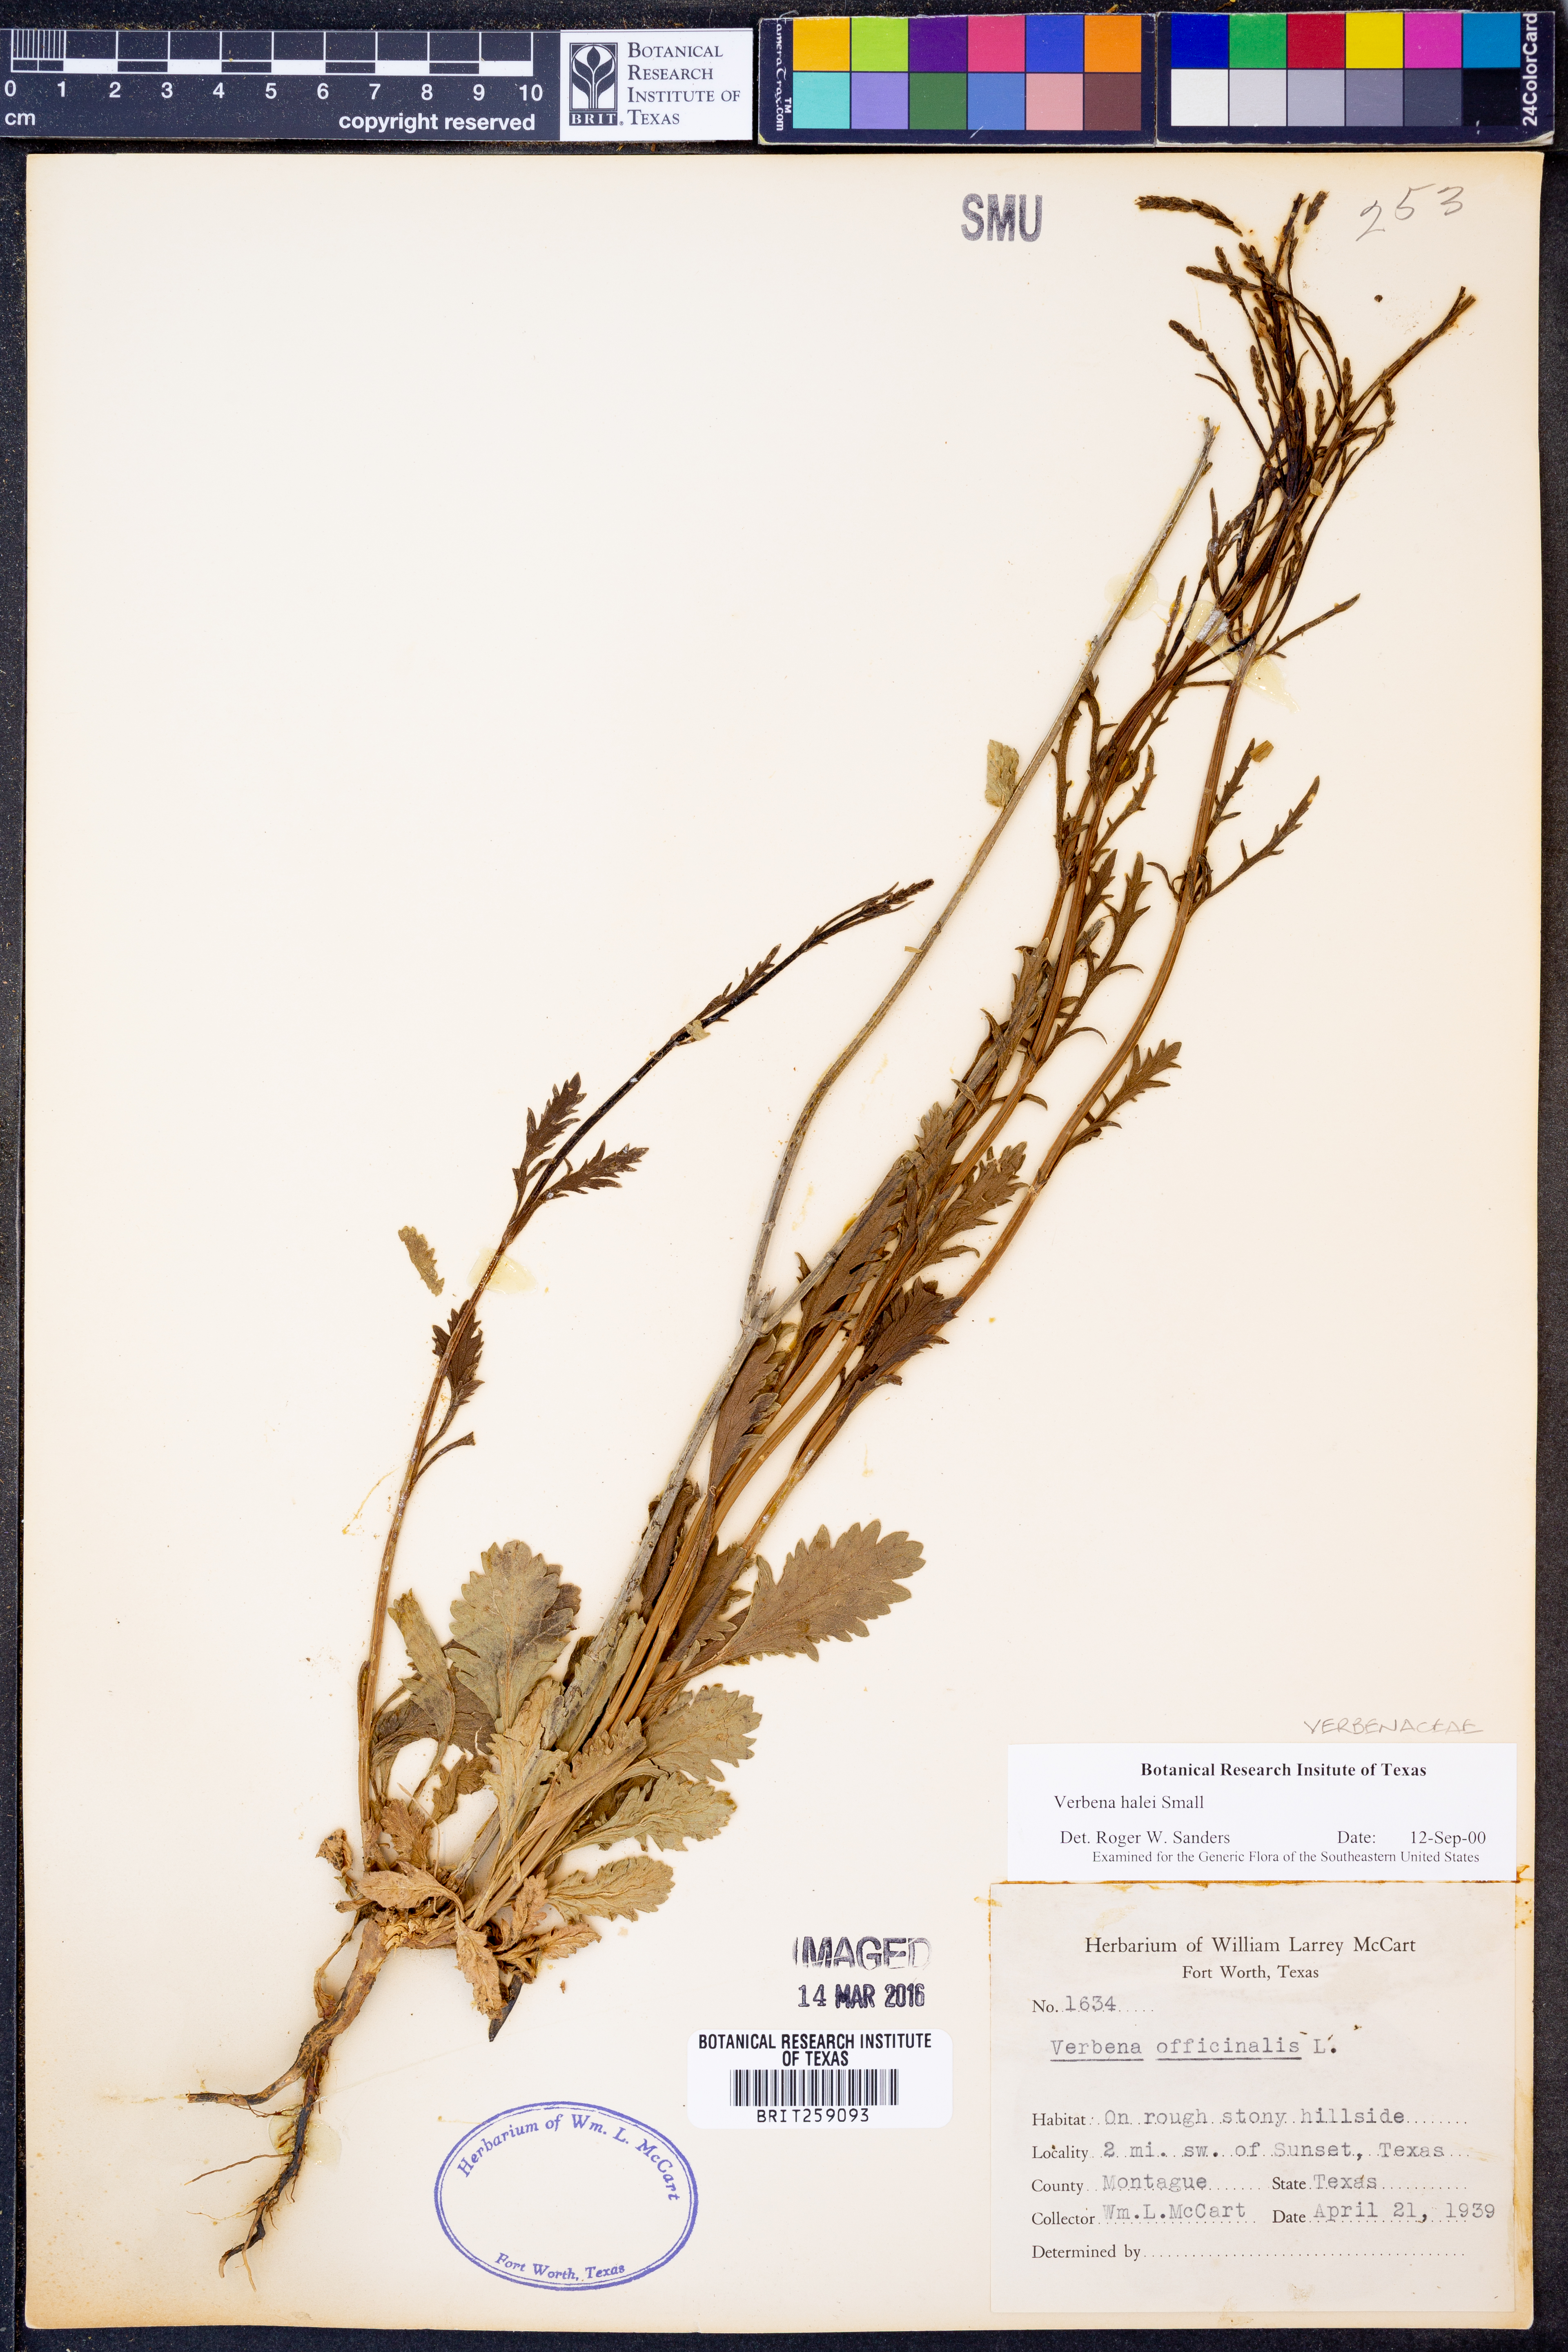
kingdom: Plantae
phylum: Tracheophyta
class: Magnoliopsida
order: Lamiales
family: Verbenaceae
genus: Verbena
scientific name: Verbena halei
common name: Texas vervain
